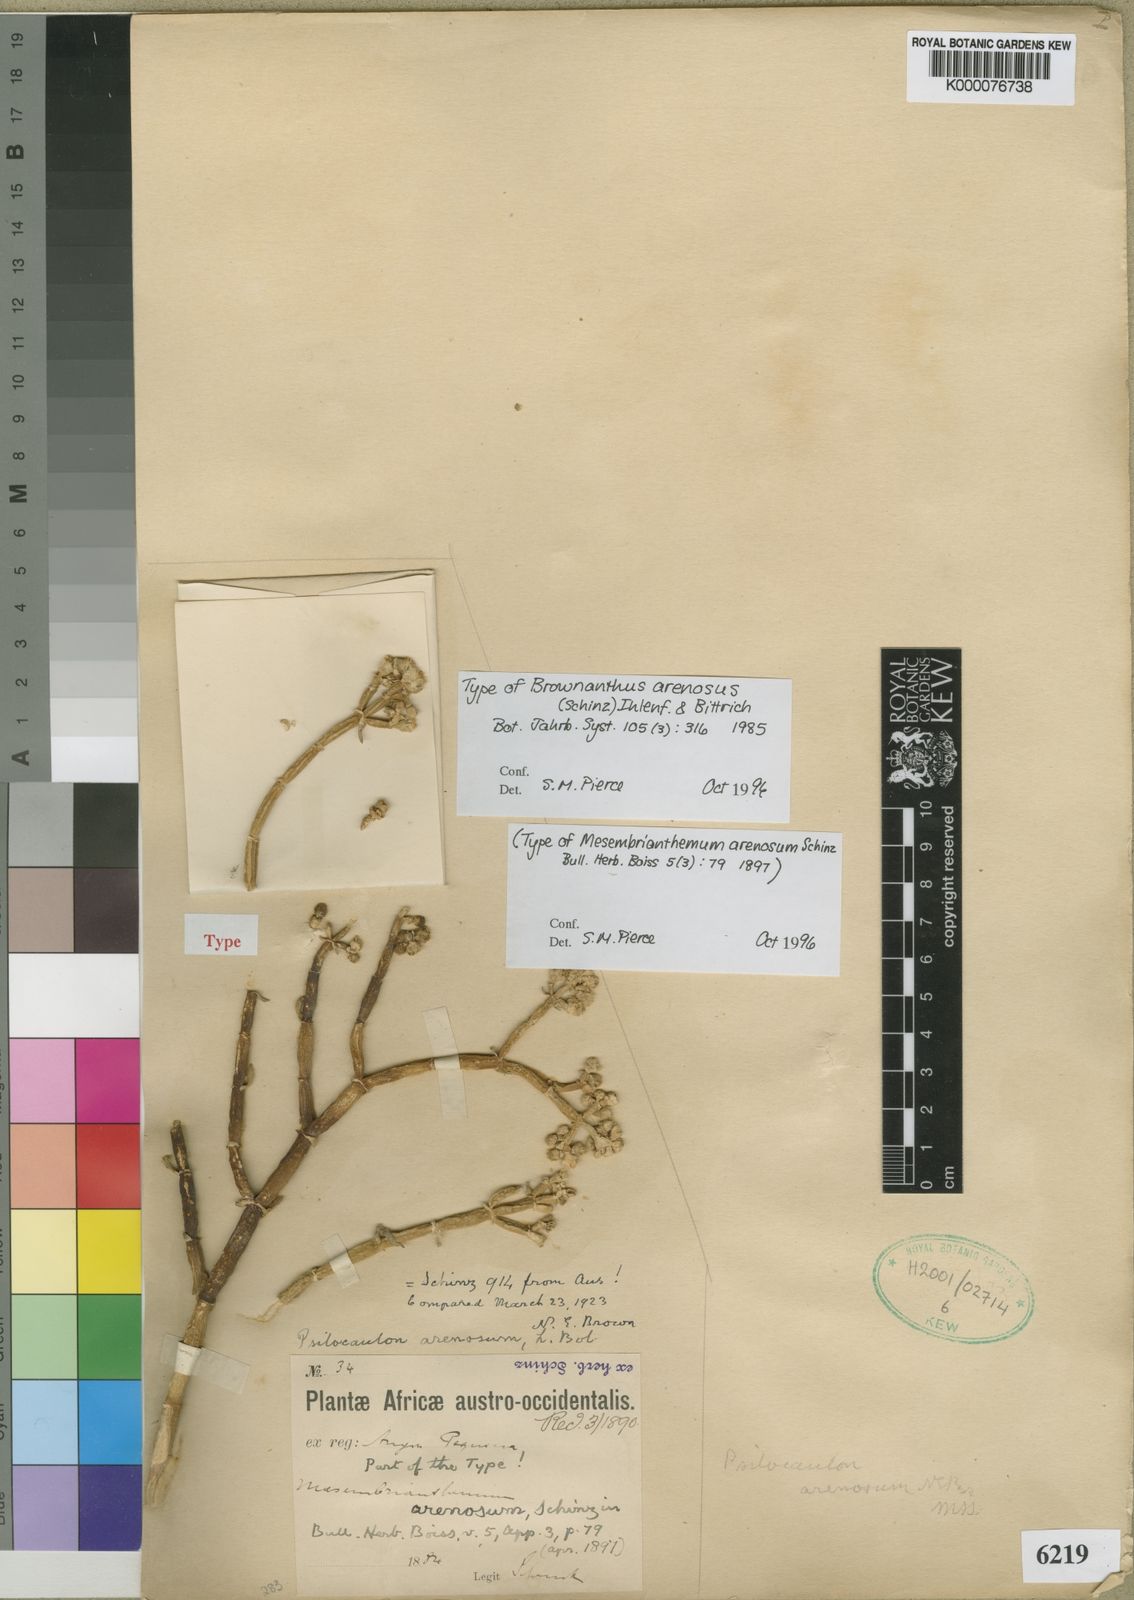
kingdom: Plantae
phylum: Tracheophyta
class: Magnoliopsida
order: Caryophyllales
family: Aizoaceae
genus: Mesembryanthemum
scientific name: Mesembryanthemum schlichtianum
